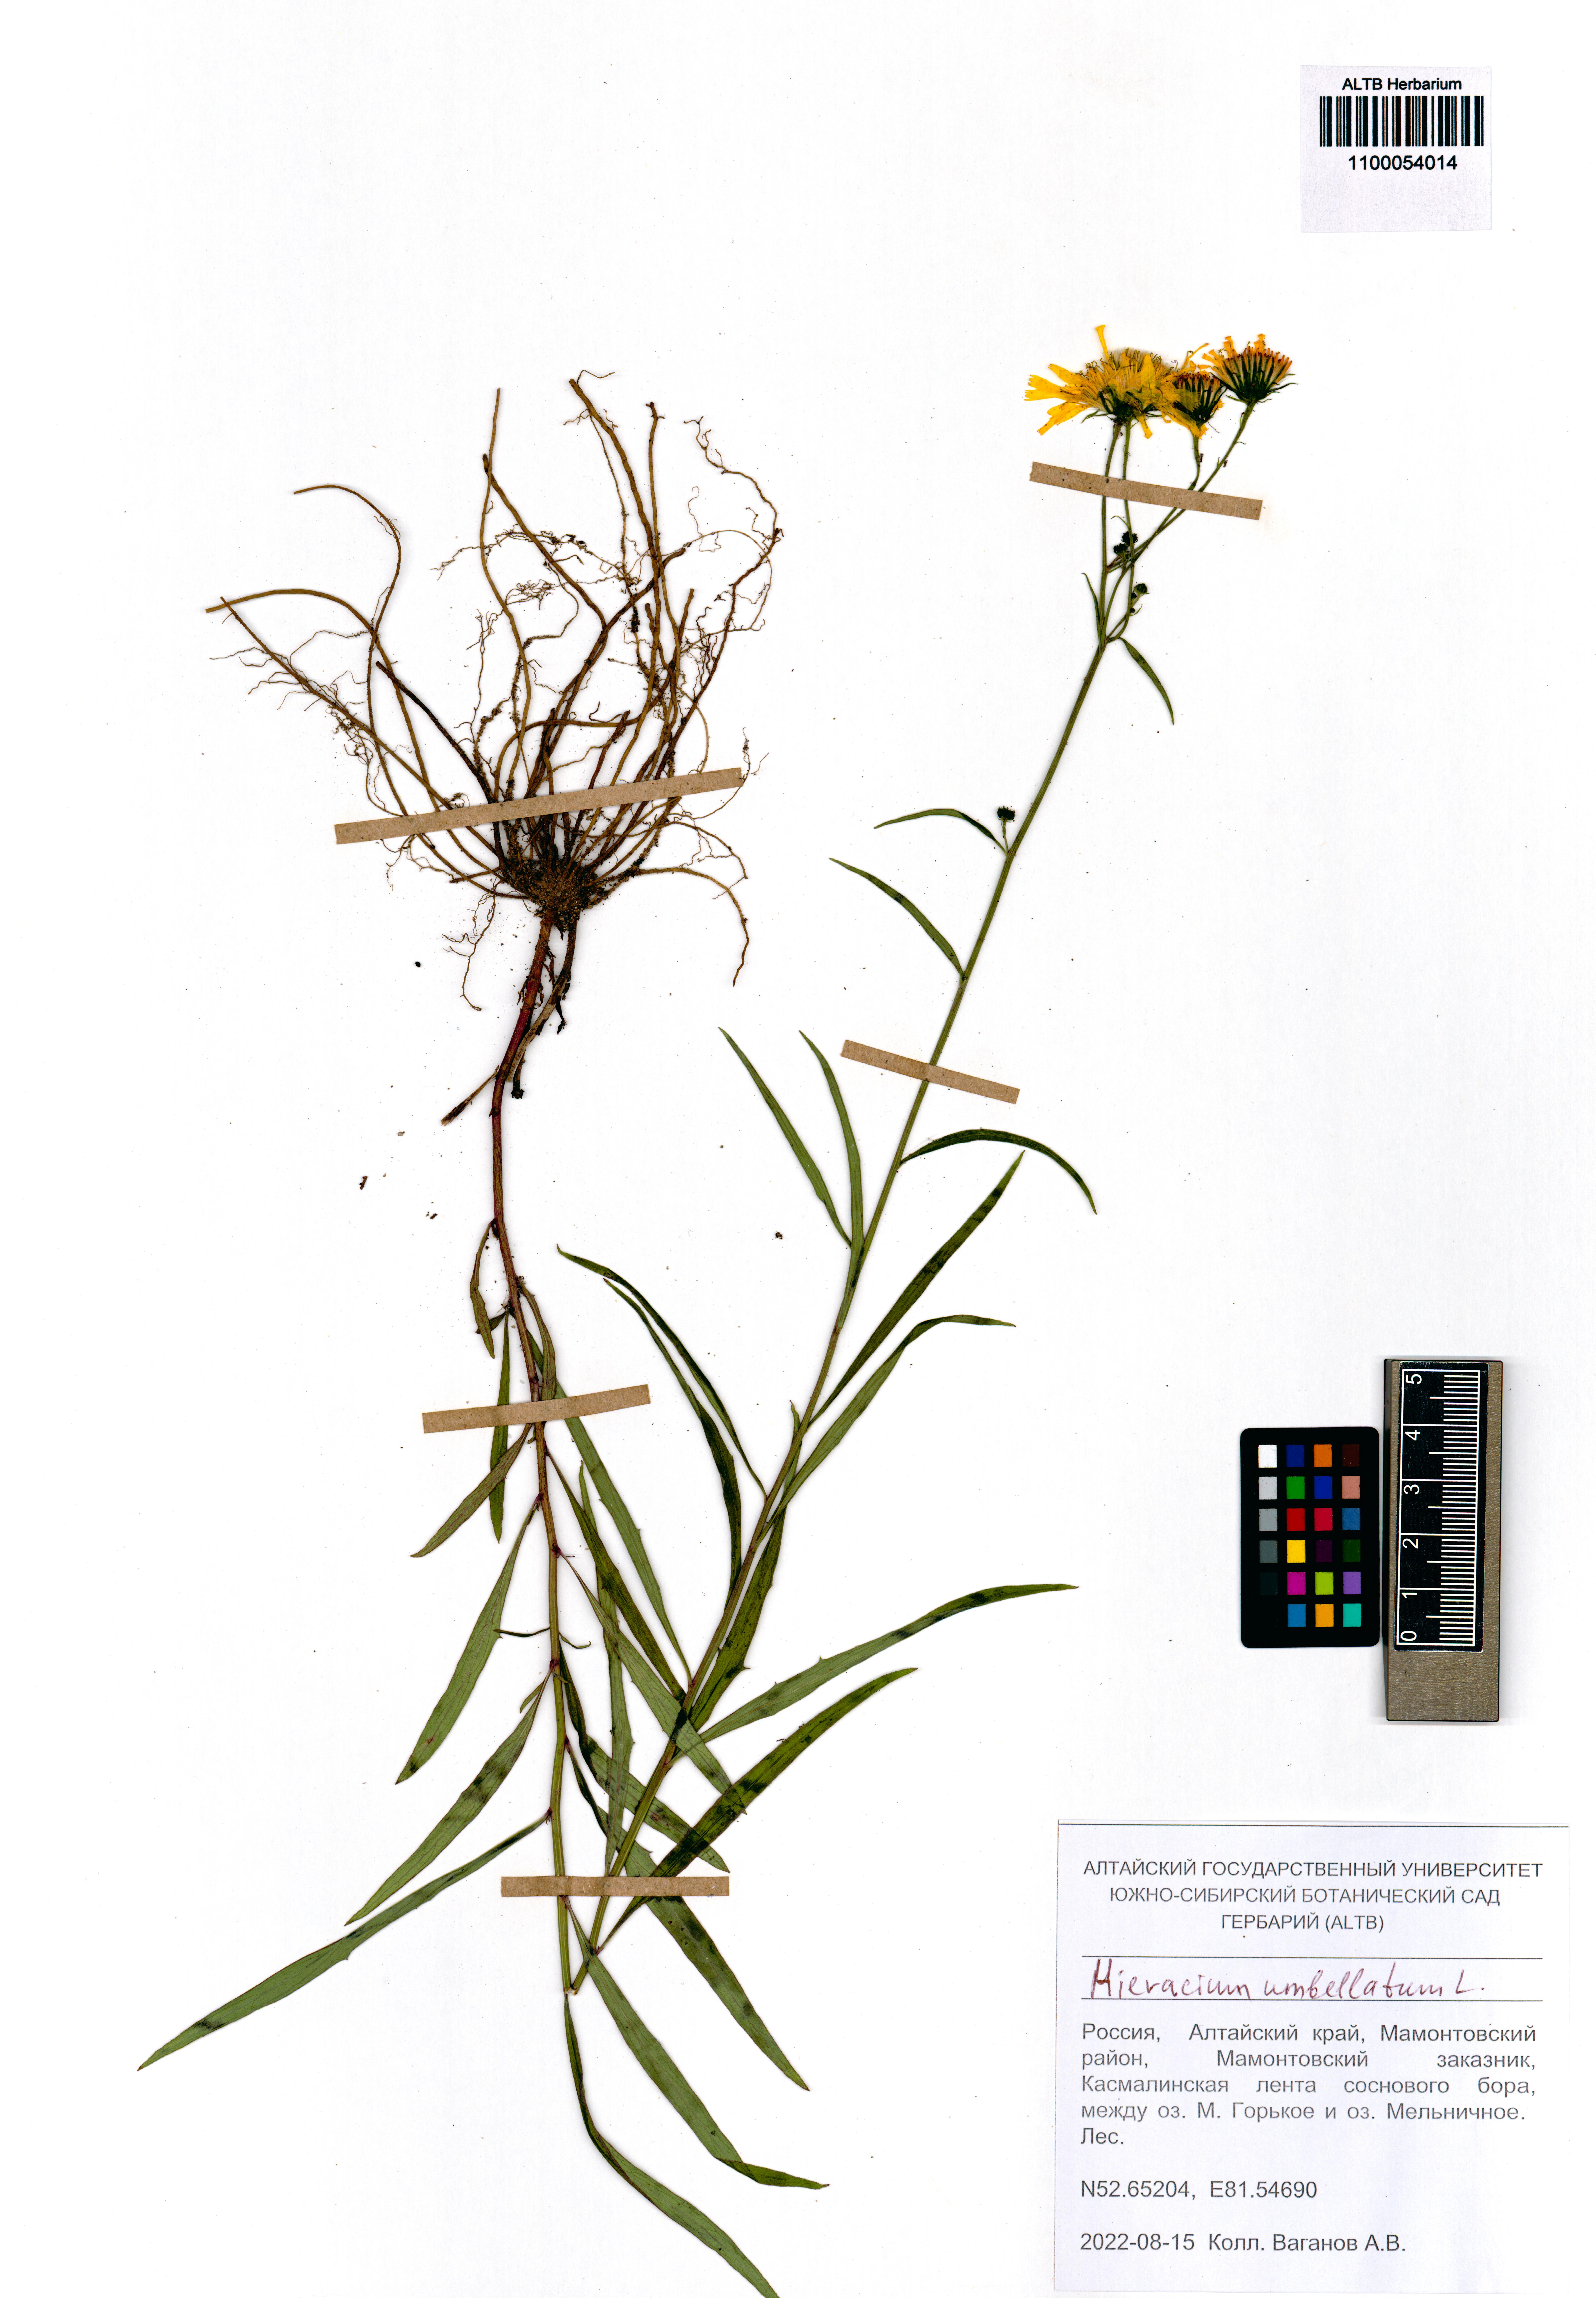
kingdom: Plantae
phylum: Tracheophyta
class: Magnoliopsida
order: Asterales
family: Asteraceae
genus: Hieracium
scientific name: Hieracium umbellatum
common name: Northern hawkweed
